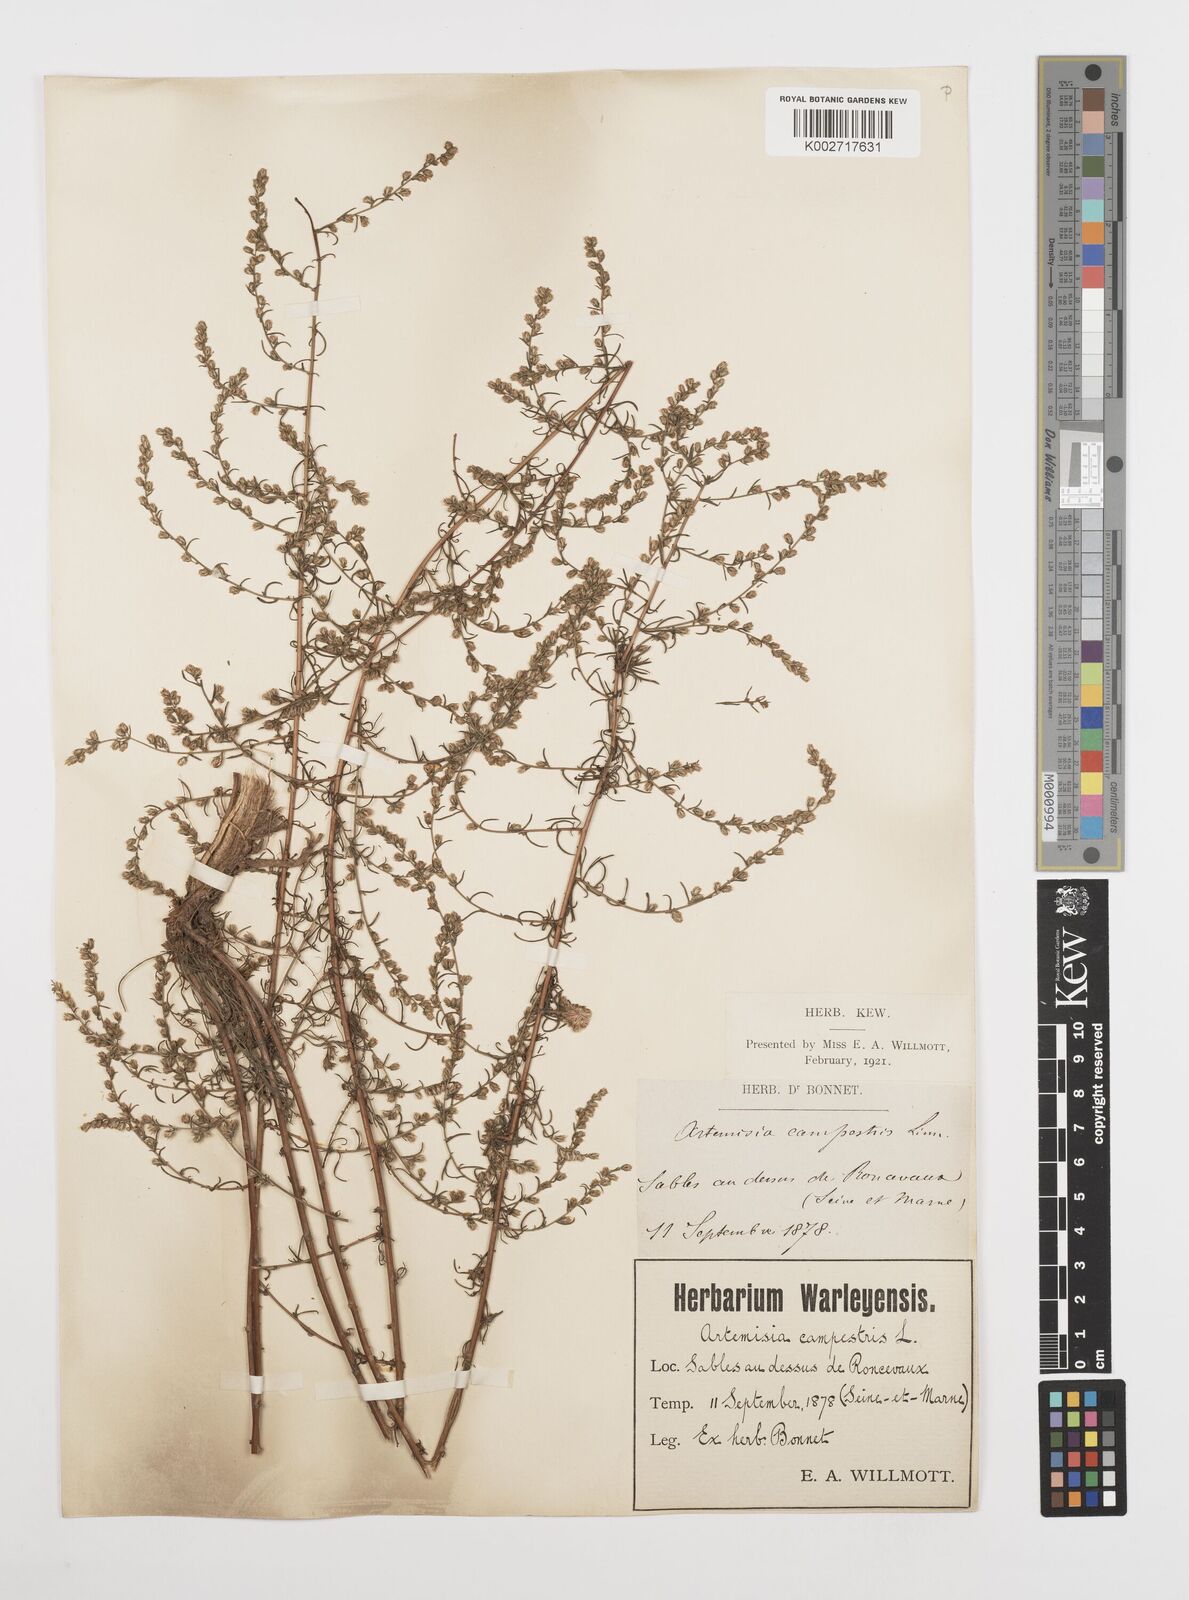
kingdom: Plantae
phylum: Tracheophyta
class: Magnoliopsida
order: Asterales
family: Asteraceae
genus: Artemisia
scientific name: Artemisia campestris
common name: Field wormwood
